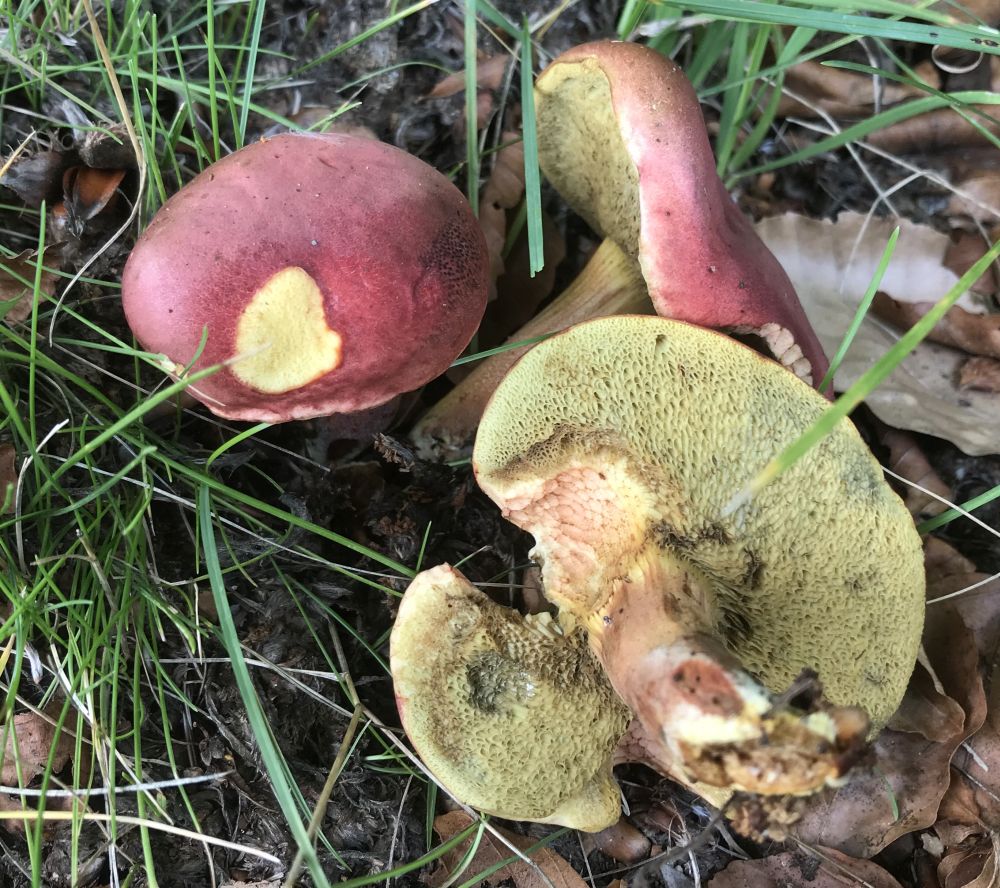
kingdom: Fungi
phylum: Basidiomycota
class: Agaricomycetes
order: Boletales
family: Boletaceae
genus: Hortiboletus
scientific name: Hortiboletus rubellus
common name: blodrød rørhat
